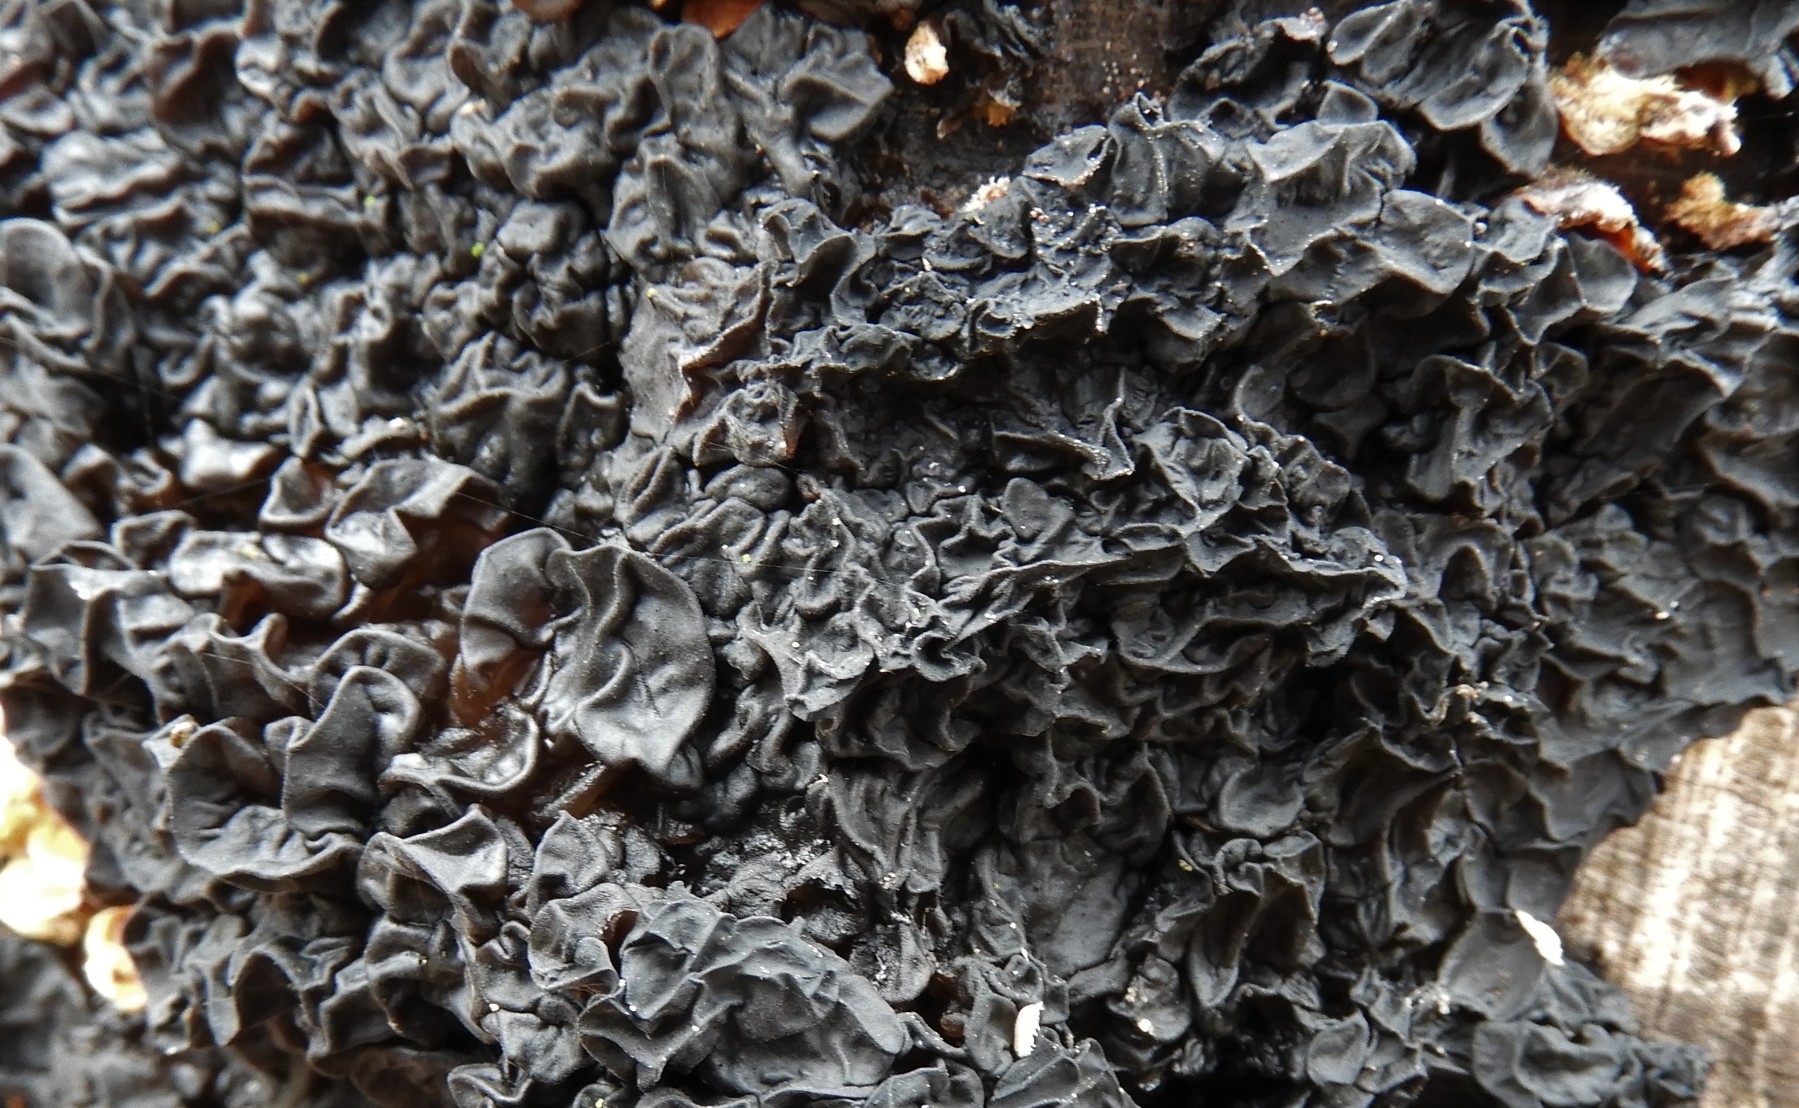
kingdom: Fungi
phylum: Basidiomycota
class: Agaricomycetes
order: Auriculariales
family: Auriculariaceae
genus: Exidia
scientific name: Exidia nigricans
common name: almindelig bævretop
